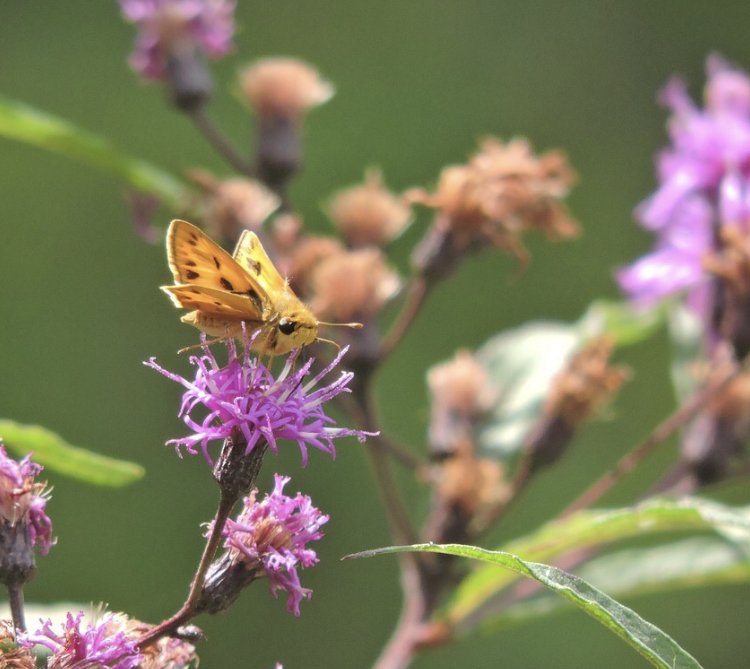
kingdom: Animalia
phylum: Arthropoda
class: Insecta
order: Lepidoptera
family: Hesperiidae
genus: Hylephila
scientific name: Hylephila phyleus
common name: Fiery Skipper
